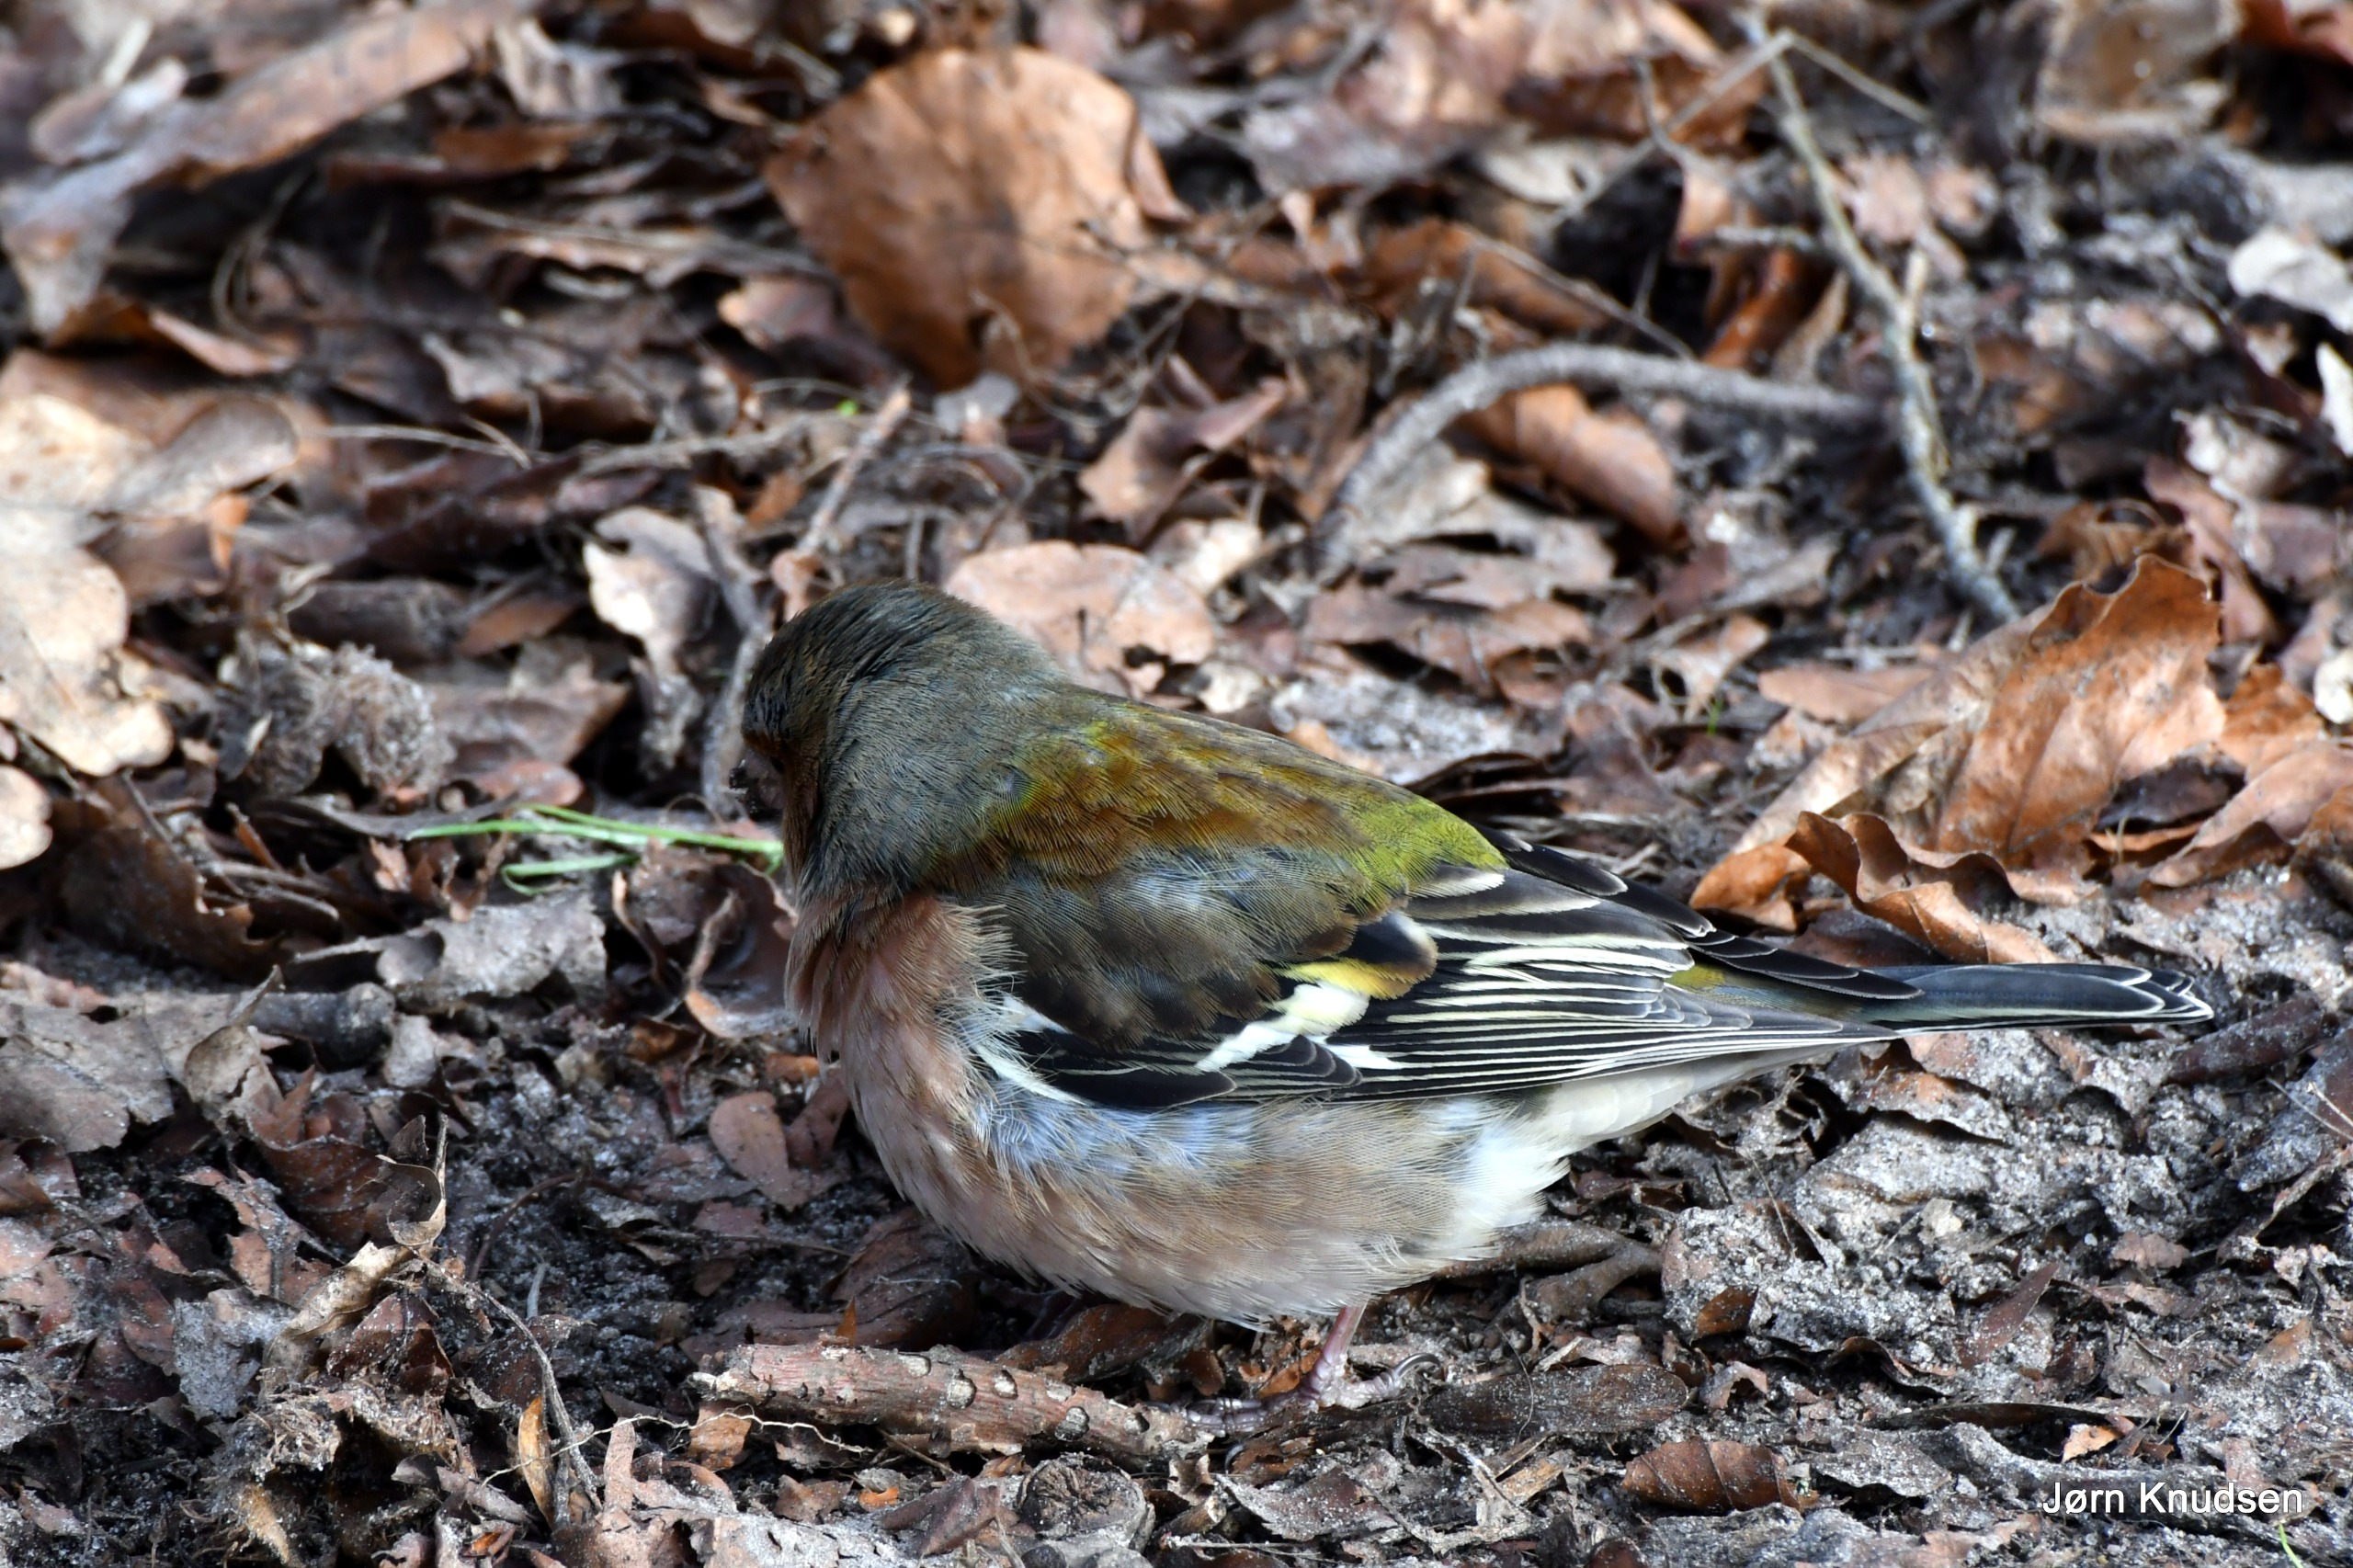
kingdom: Animalia
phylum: Chordata
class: Aves
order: Passeriformes
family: Fringillidae
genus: Fringilla
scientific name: Fringilla coelebs
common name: Bogfinke
